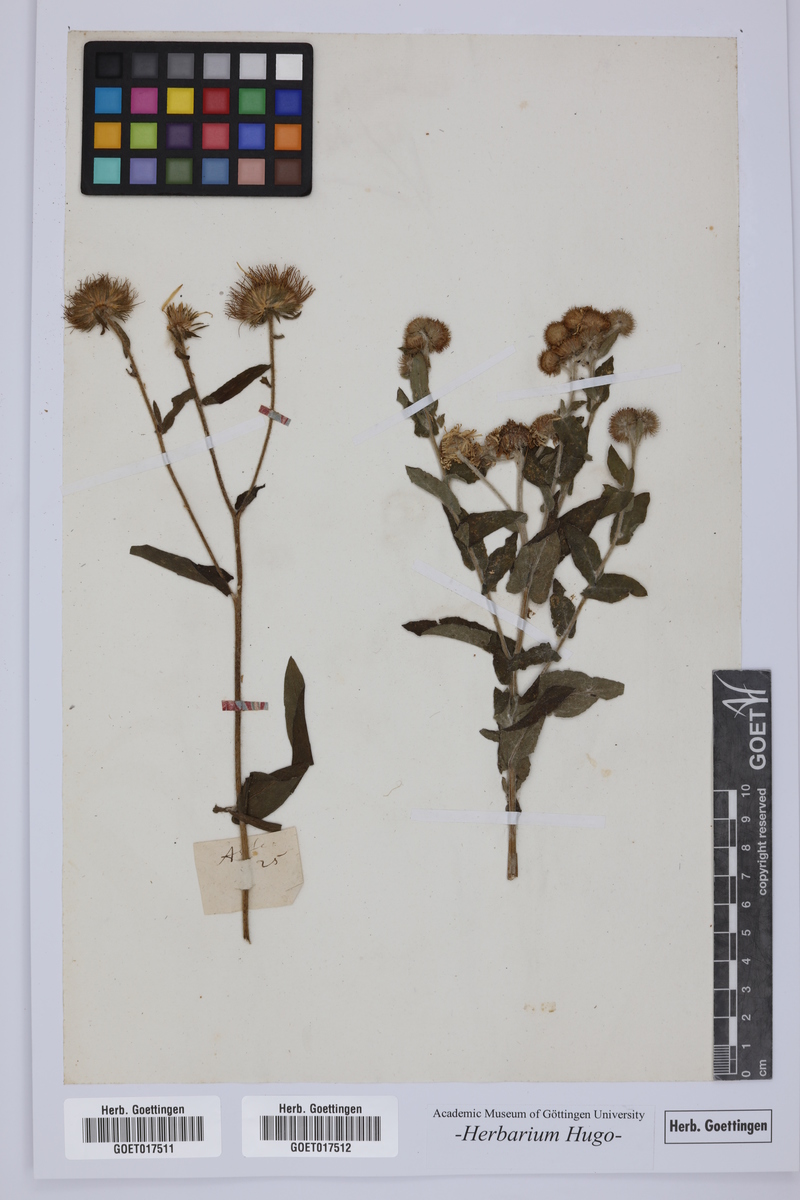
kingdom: Plantae
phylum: Tracheophyta
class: Magnoliopsida
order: Asterales
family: Asteraceae
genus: Aster
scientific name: Aster
